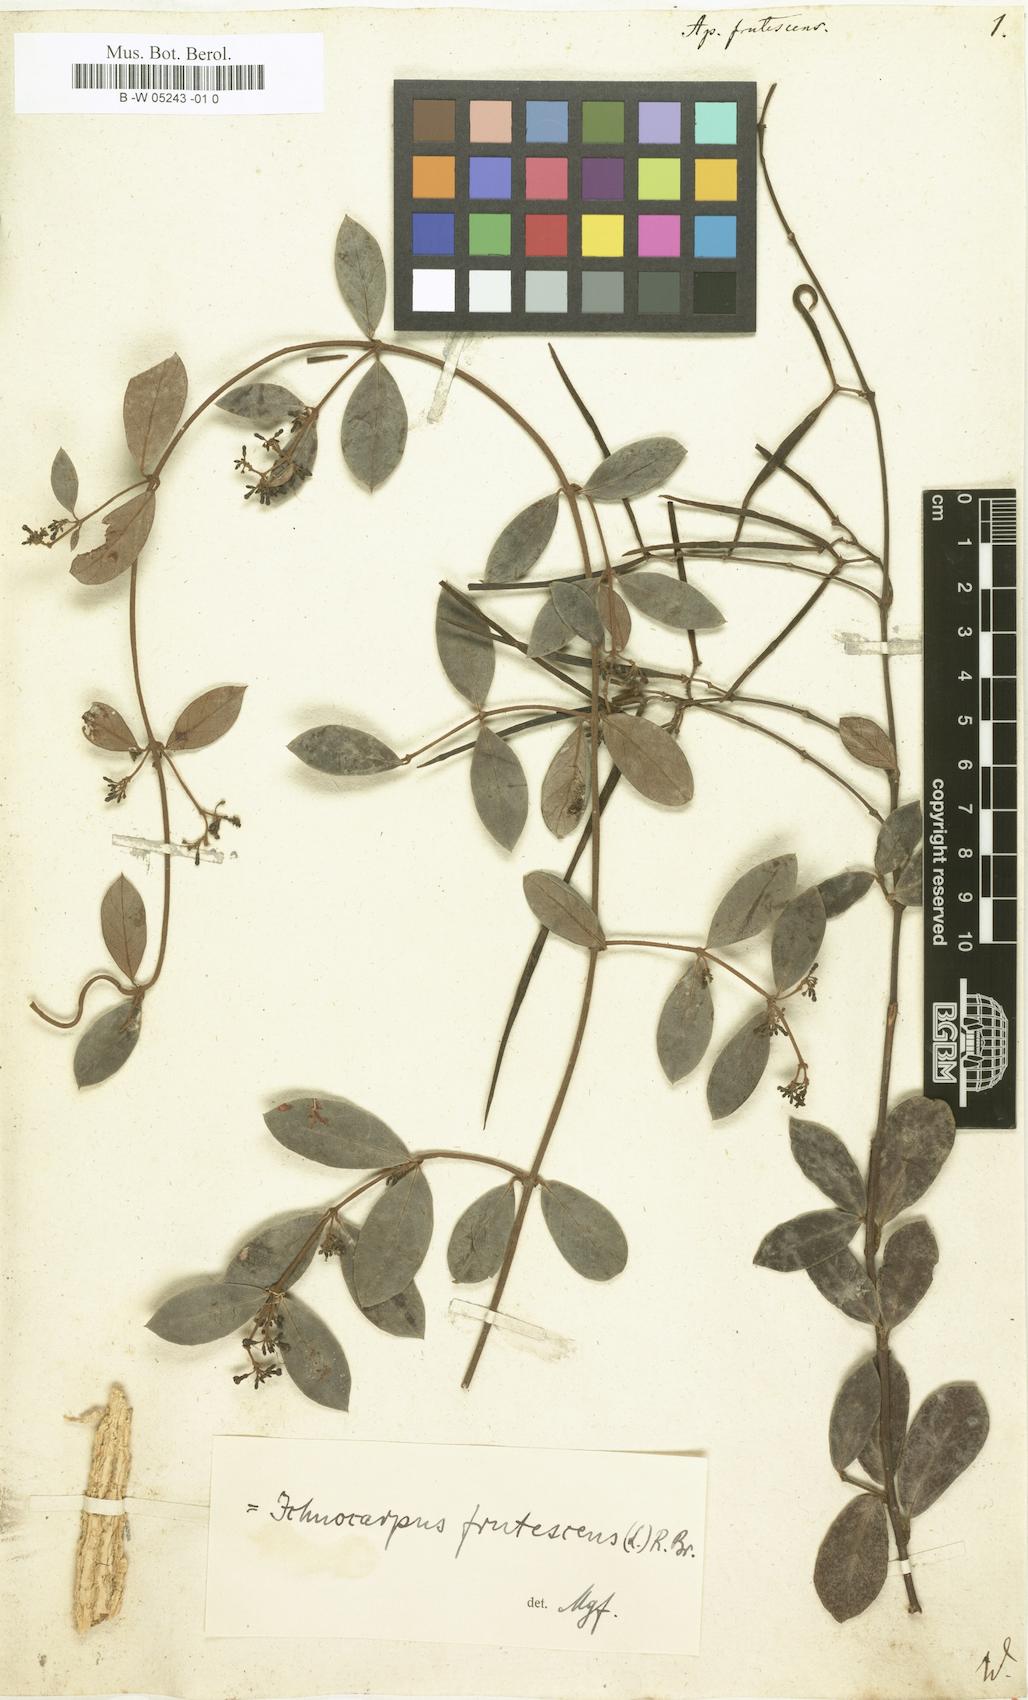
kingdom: Plantae
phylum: Tracheophyta
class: Magnoliopsida
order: Gentianales
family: Apocynaceae
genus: Ichnocarpus
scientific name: Ichnocarpus frutescens
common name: Ichnocarpus
